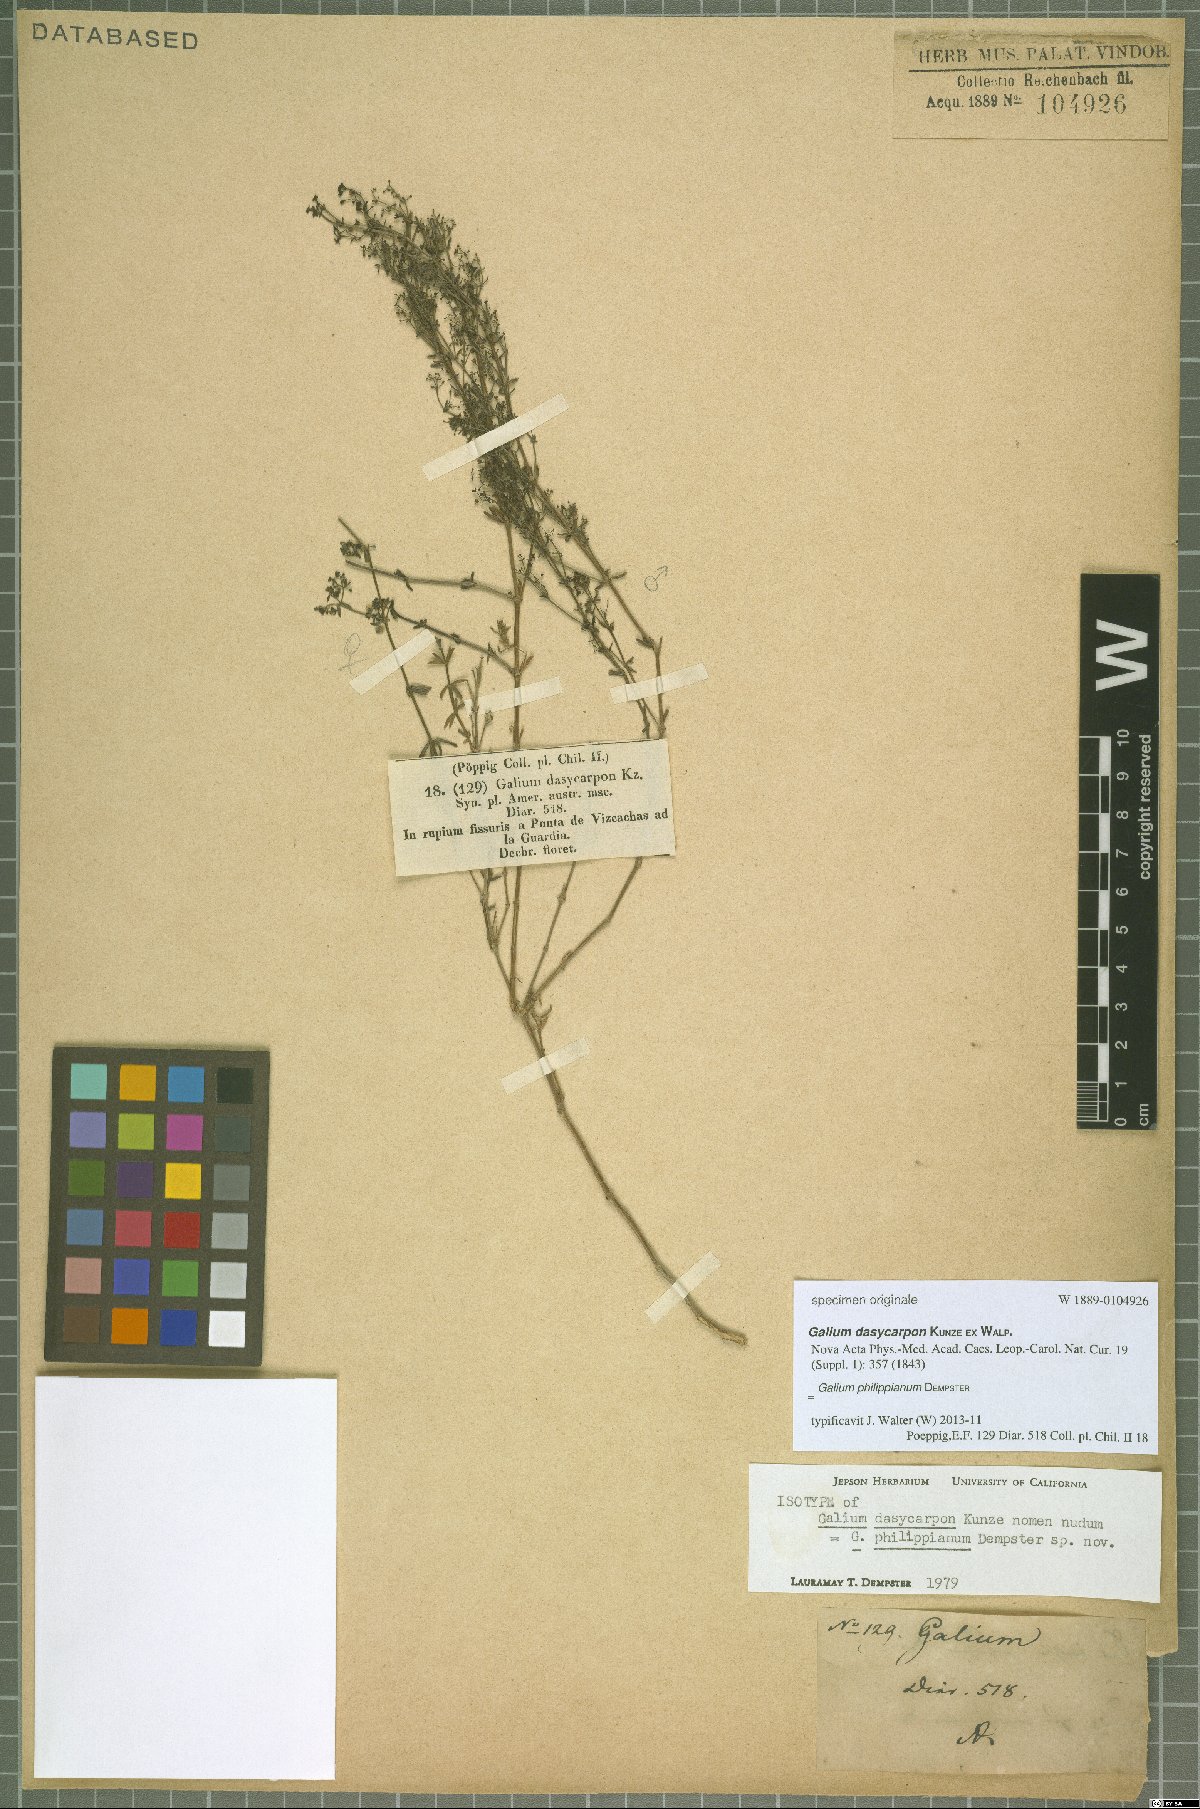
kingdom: Plantae
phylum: Tracheophyta
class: Magnoliopsida
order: Gentianales
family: Rubiaceae
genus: Galium
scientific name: Galium philippianum
